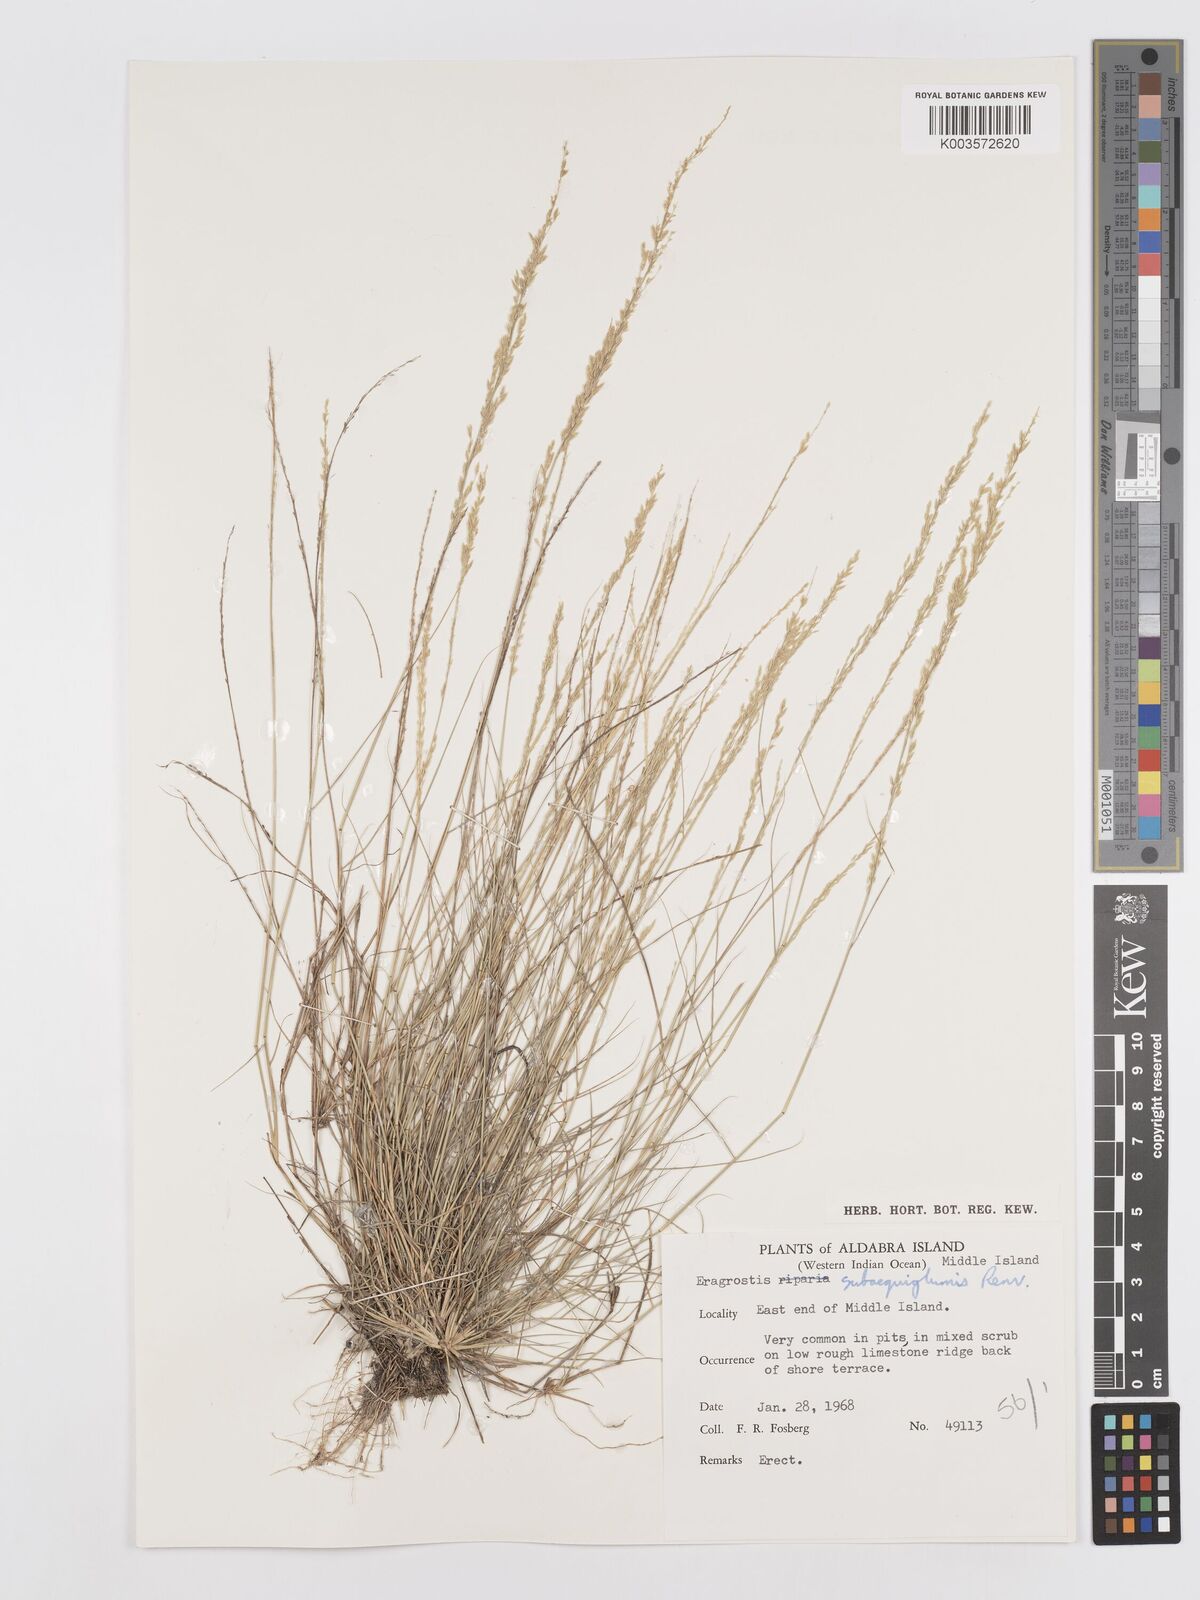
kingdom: Plantae
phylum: Tracheophyta
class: Liliopsida
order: Poales
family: Poaceae
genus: Eragrostis
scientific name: Eragrostis subaequiglumis
